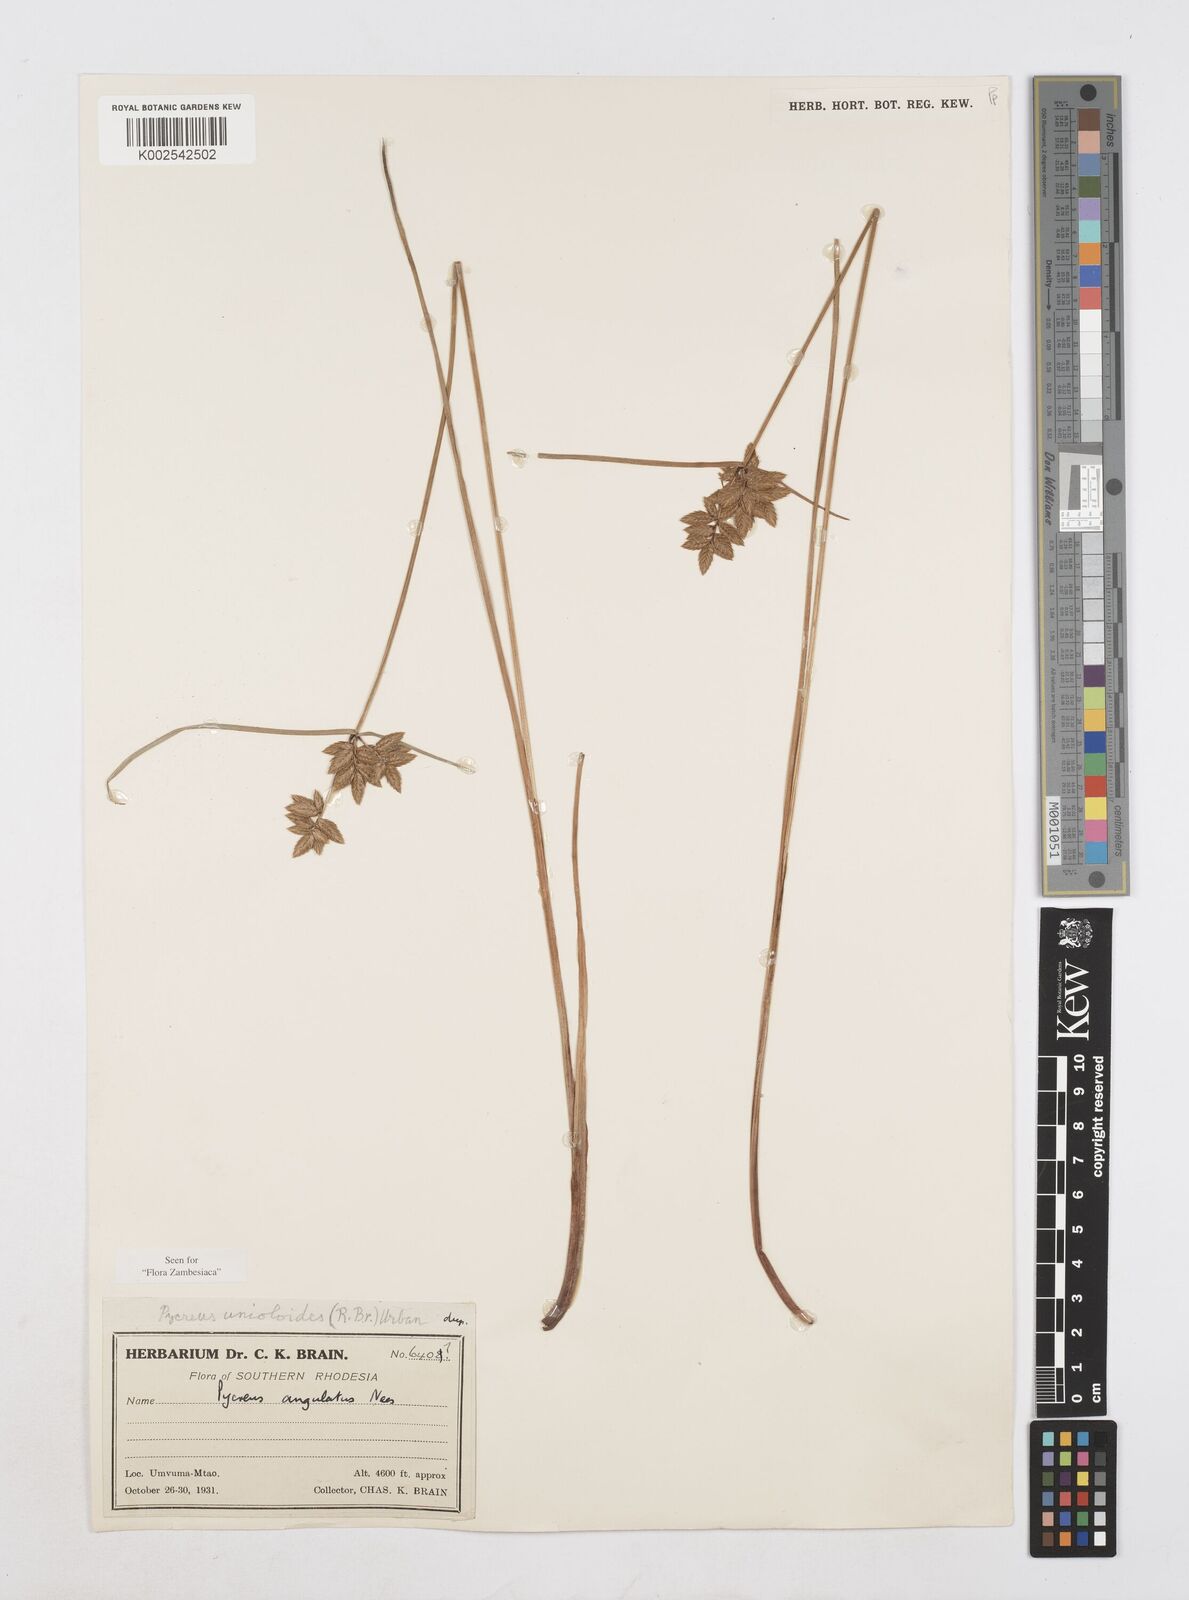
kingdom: Plantae
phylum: Tracheophyta
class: Liliopsida
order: Poales
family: Cyperaceae
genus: Cyperus
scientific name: Cyperus unioloides
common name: Uniola flatsedge
